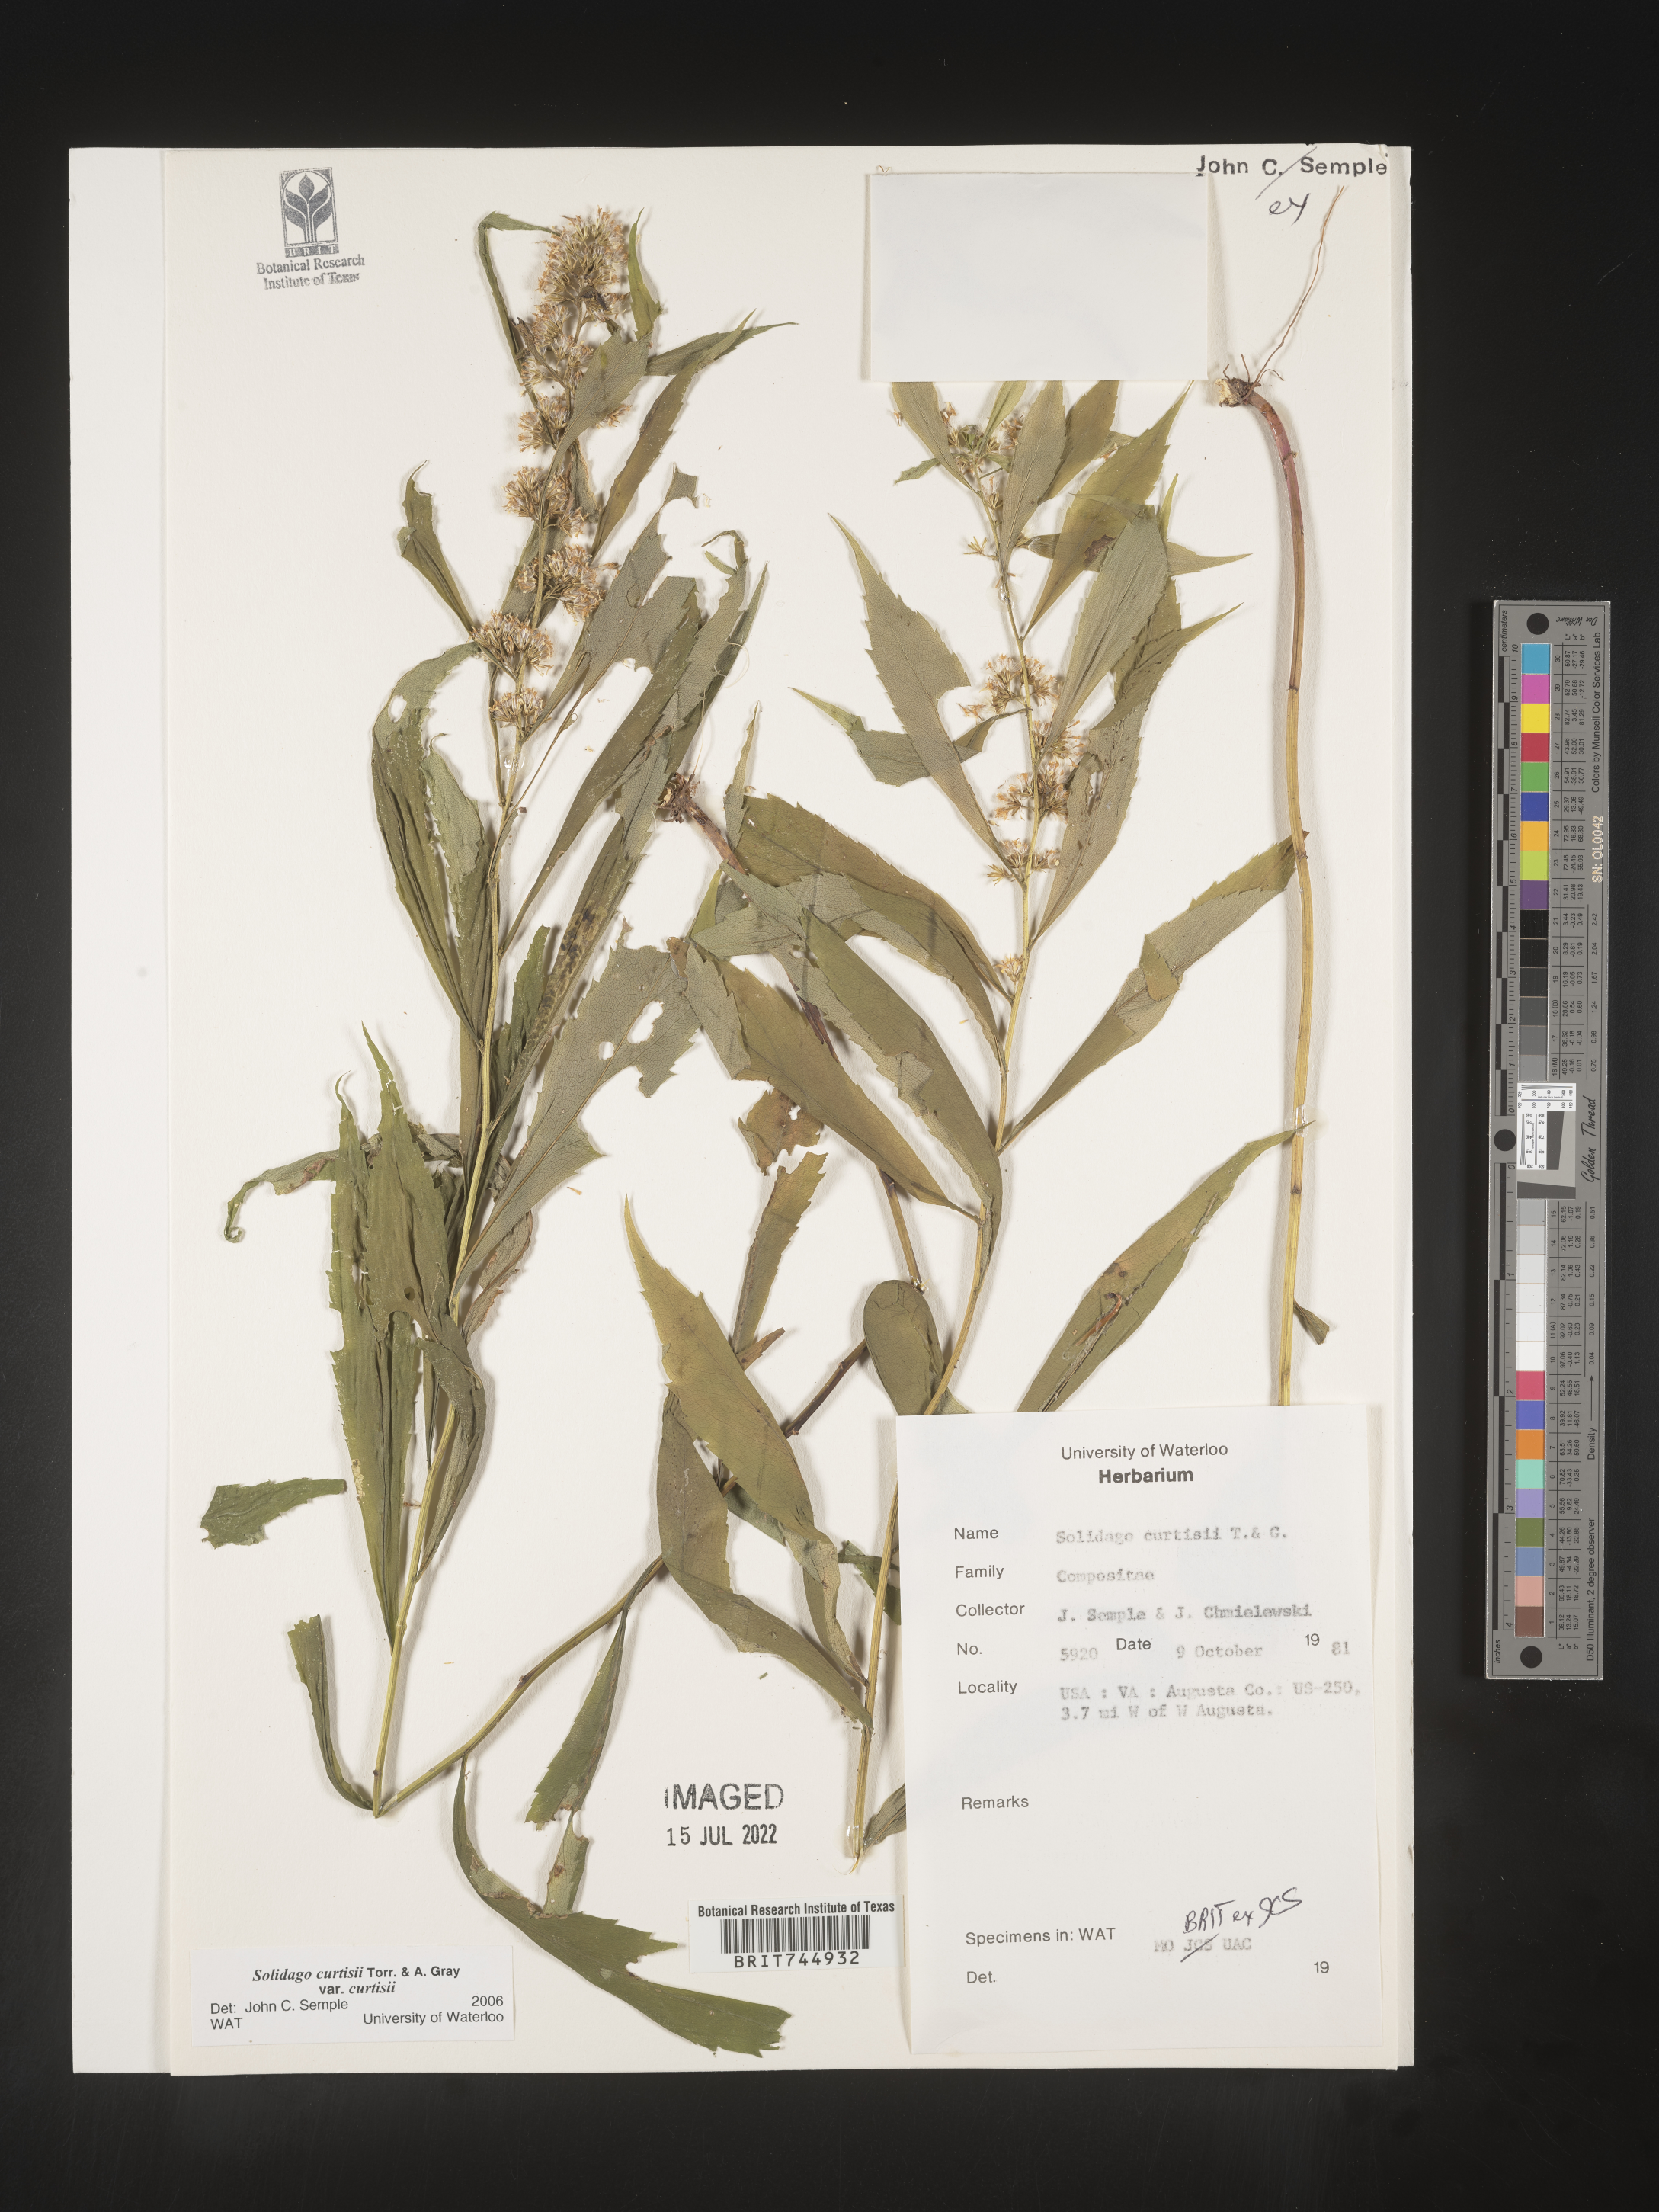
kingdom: Plantae
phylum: Tracheophyta
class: Magnoliopsida
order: Asterales
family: Asteraceae
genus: Solidago
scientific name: Solidago
